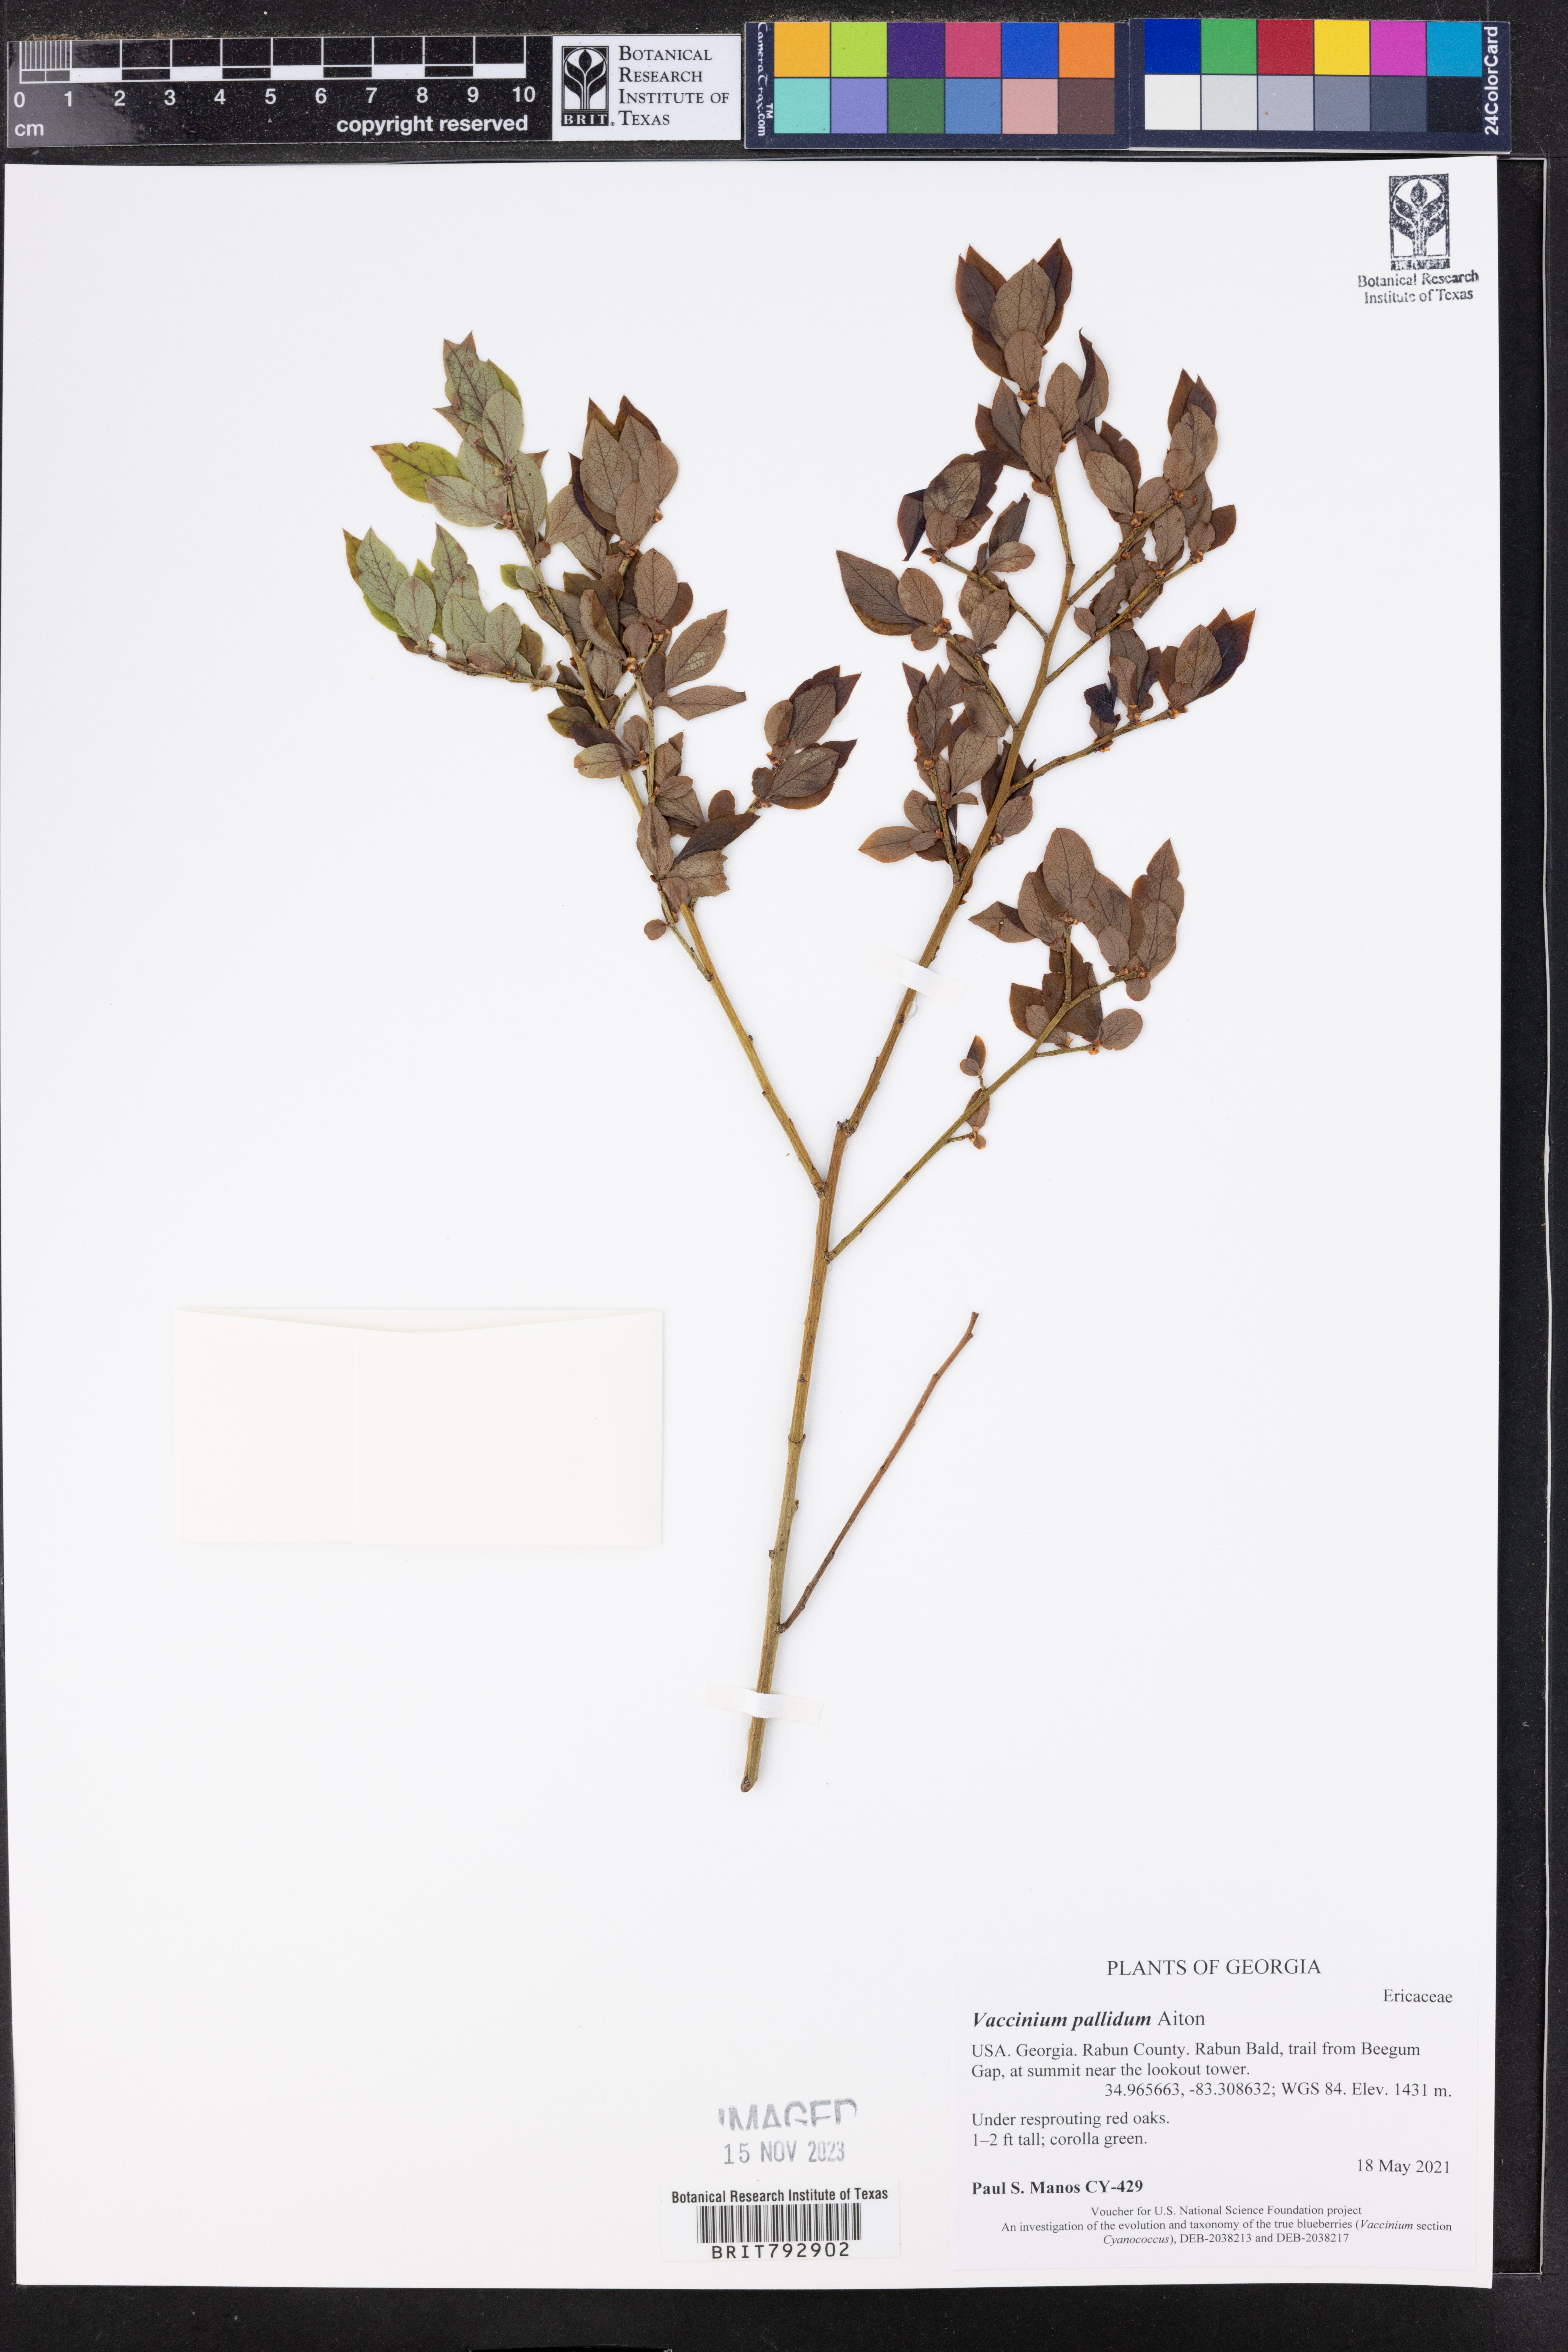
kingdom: Plantae
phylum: Tracheophyta
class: Magnoliopsida
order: Ericales
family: Ericaceae
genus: Vaccinium
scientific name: Vaccinium pallidum
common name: Blue ridge blueberry
